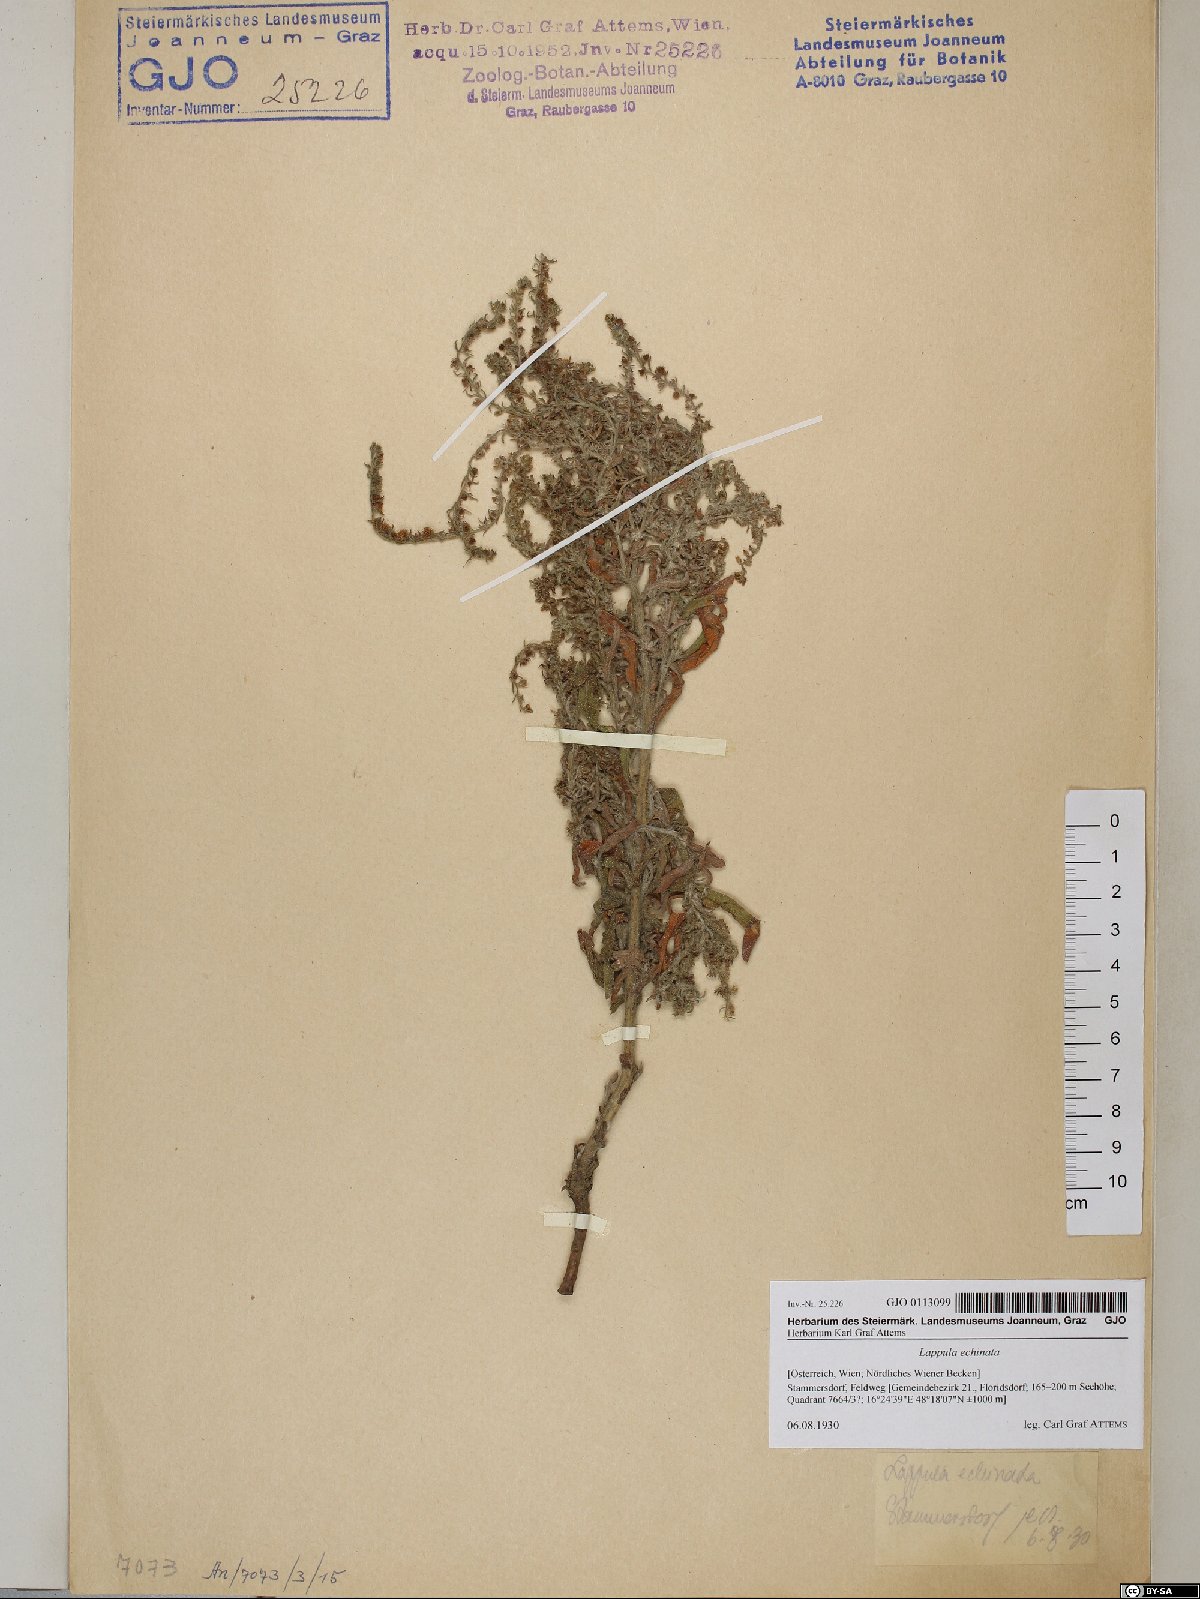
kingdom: Plantae
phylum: Tracheophyta
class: Magnoliopsida
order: Boraginales
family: Boraginaceae
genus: Lappula
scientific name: Lappula squarrosa
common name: European stickseed
